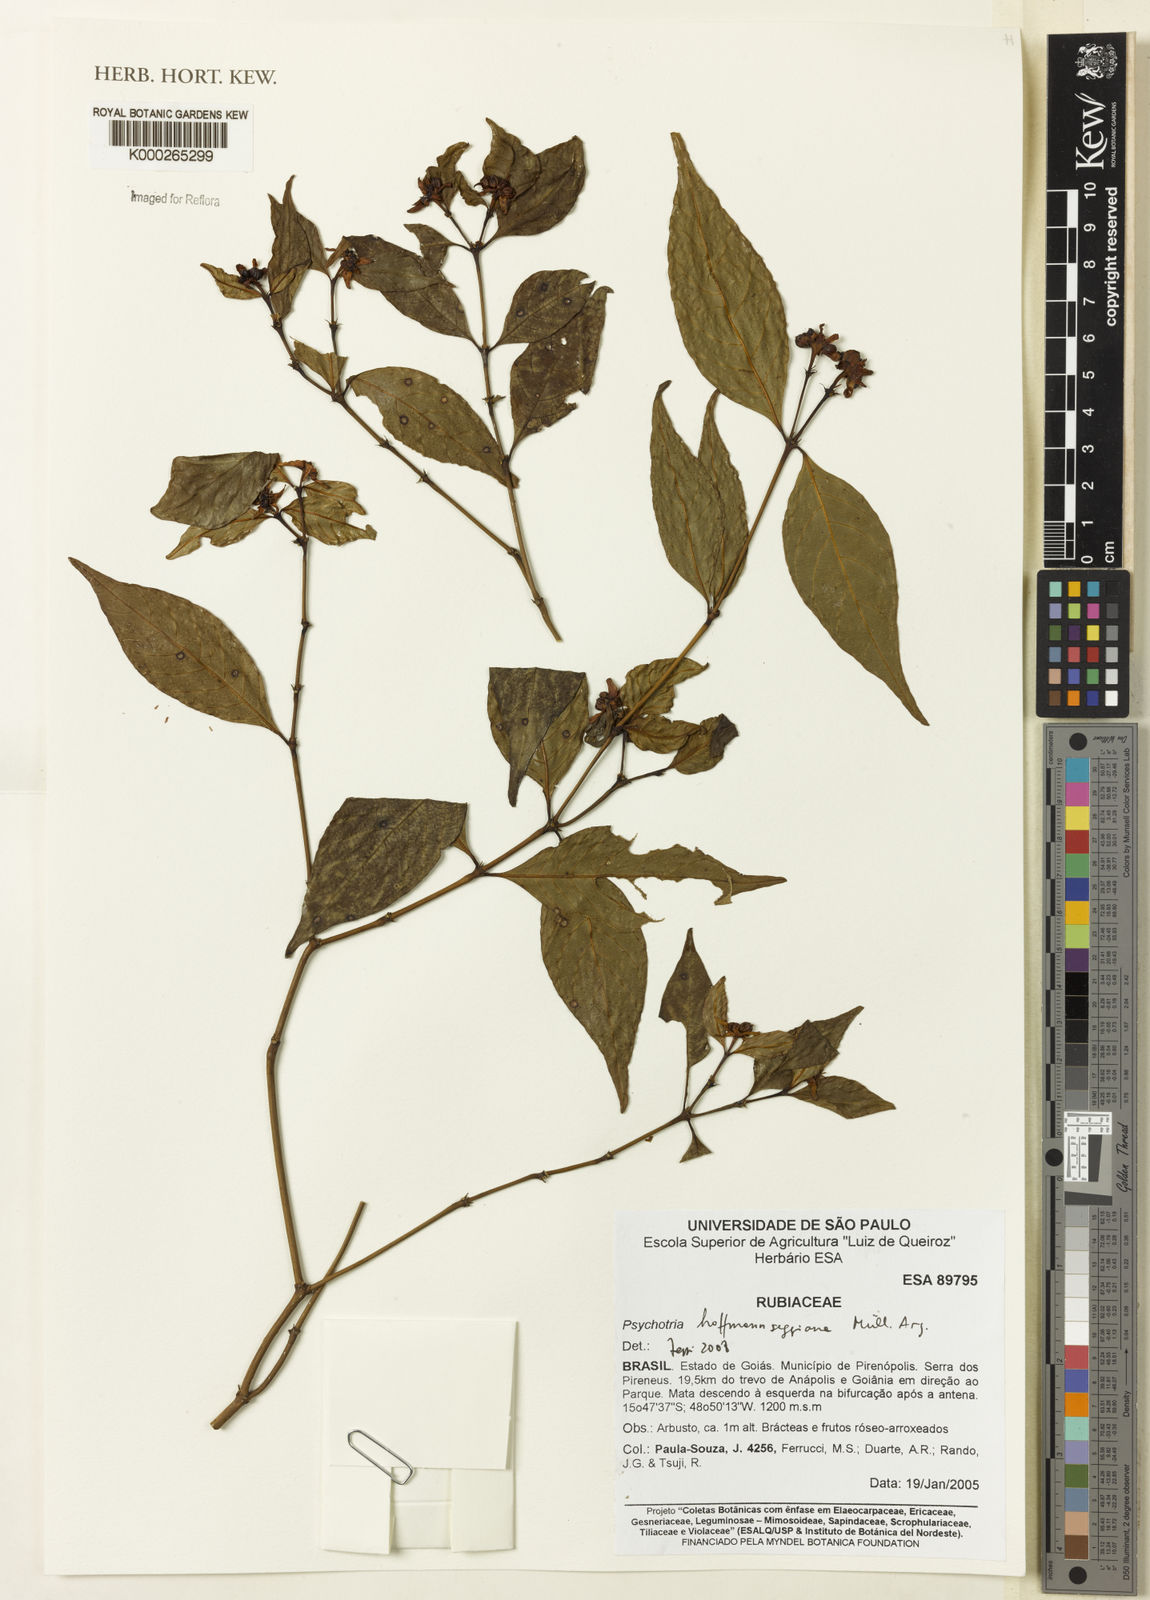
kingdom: Plantae
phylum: Tracheophyta
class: Magnoliopsida
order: Gentianales
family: Rubiaceae
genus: Psychotria
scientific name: Psychotria
